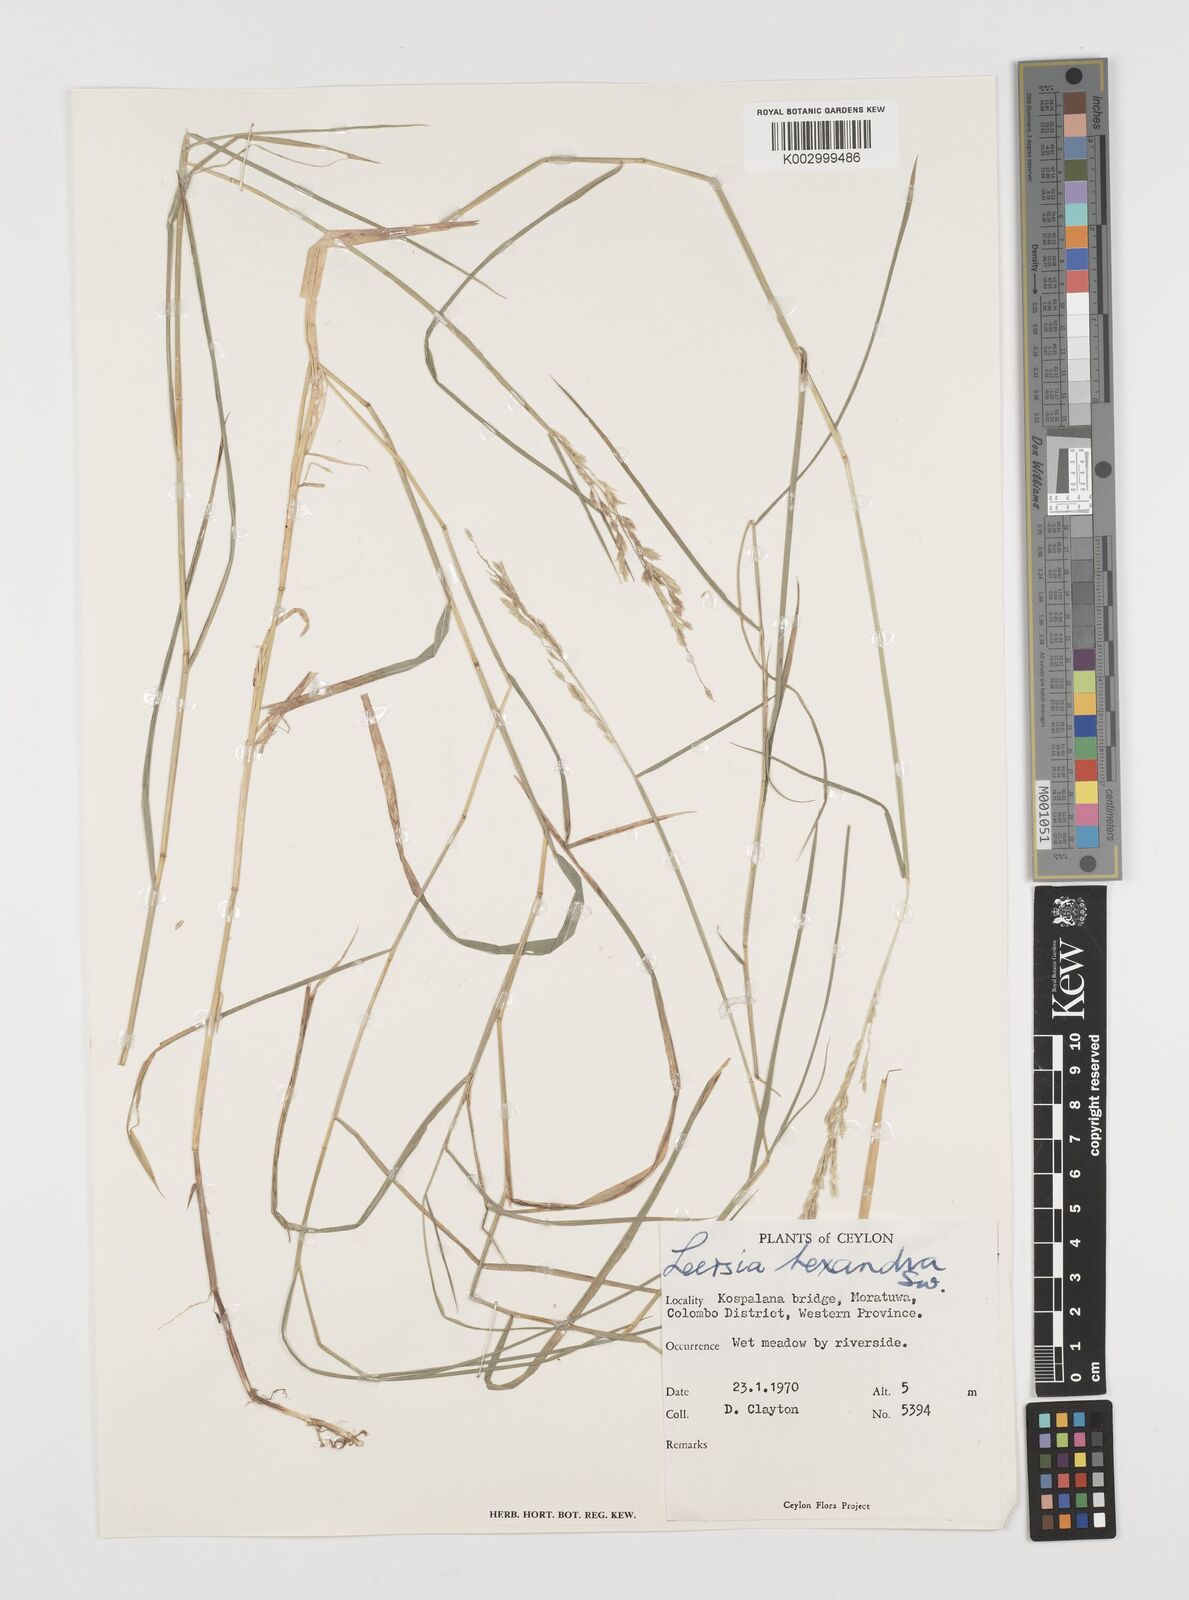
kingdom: Plantae
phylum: Tracheophyta
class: Liliopsida
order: Poales
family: Poaceae
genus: Leersia
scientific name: Leersia hexandra
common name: Southern cut grass
